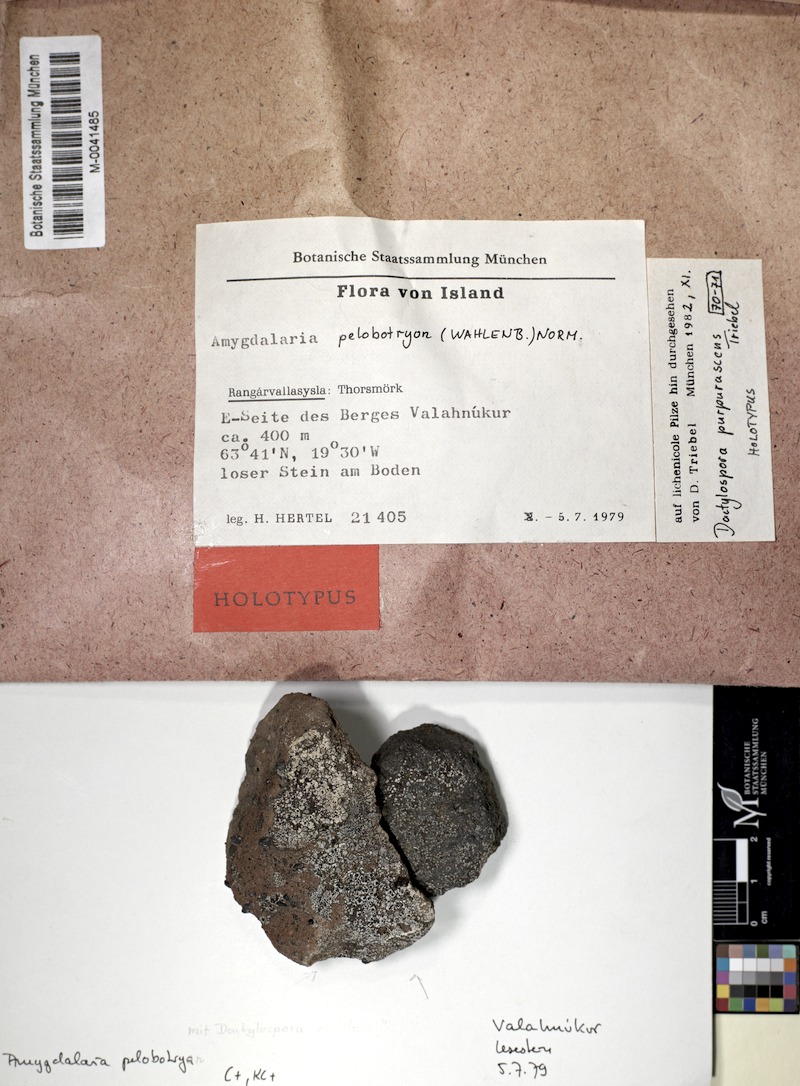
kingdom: Fungi
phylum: Ascomycota
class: Lecanoromycetes
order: Lecideales
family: Lecideaceae
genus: Amygdalaria
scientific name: Amygdalaria pelobotryon
